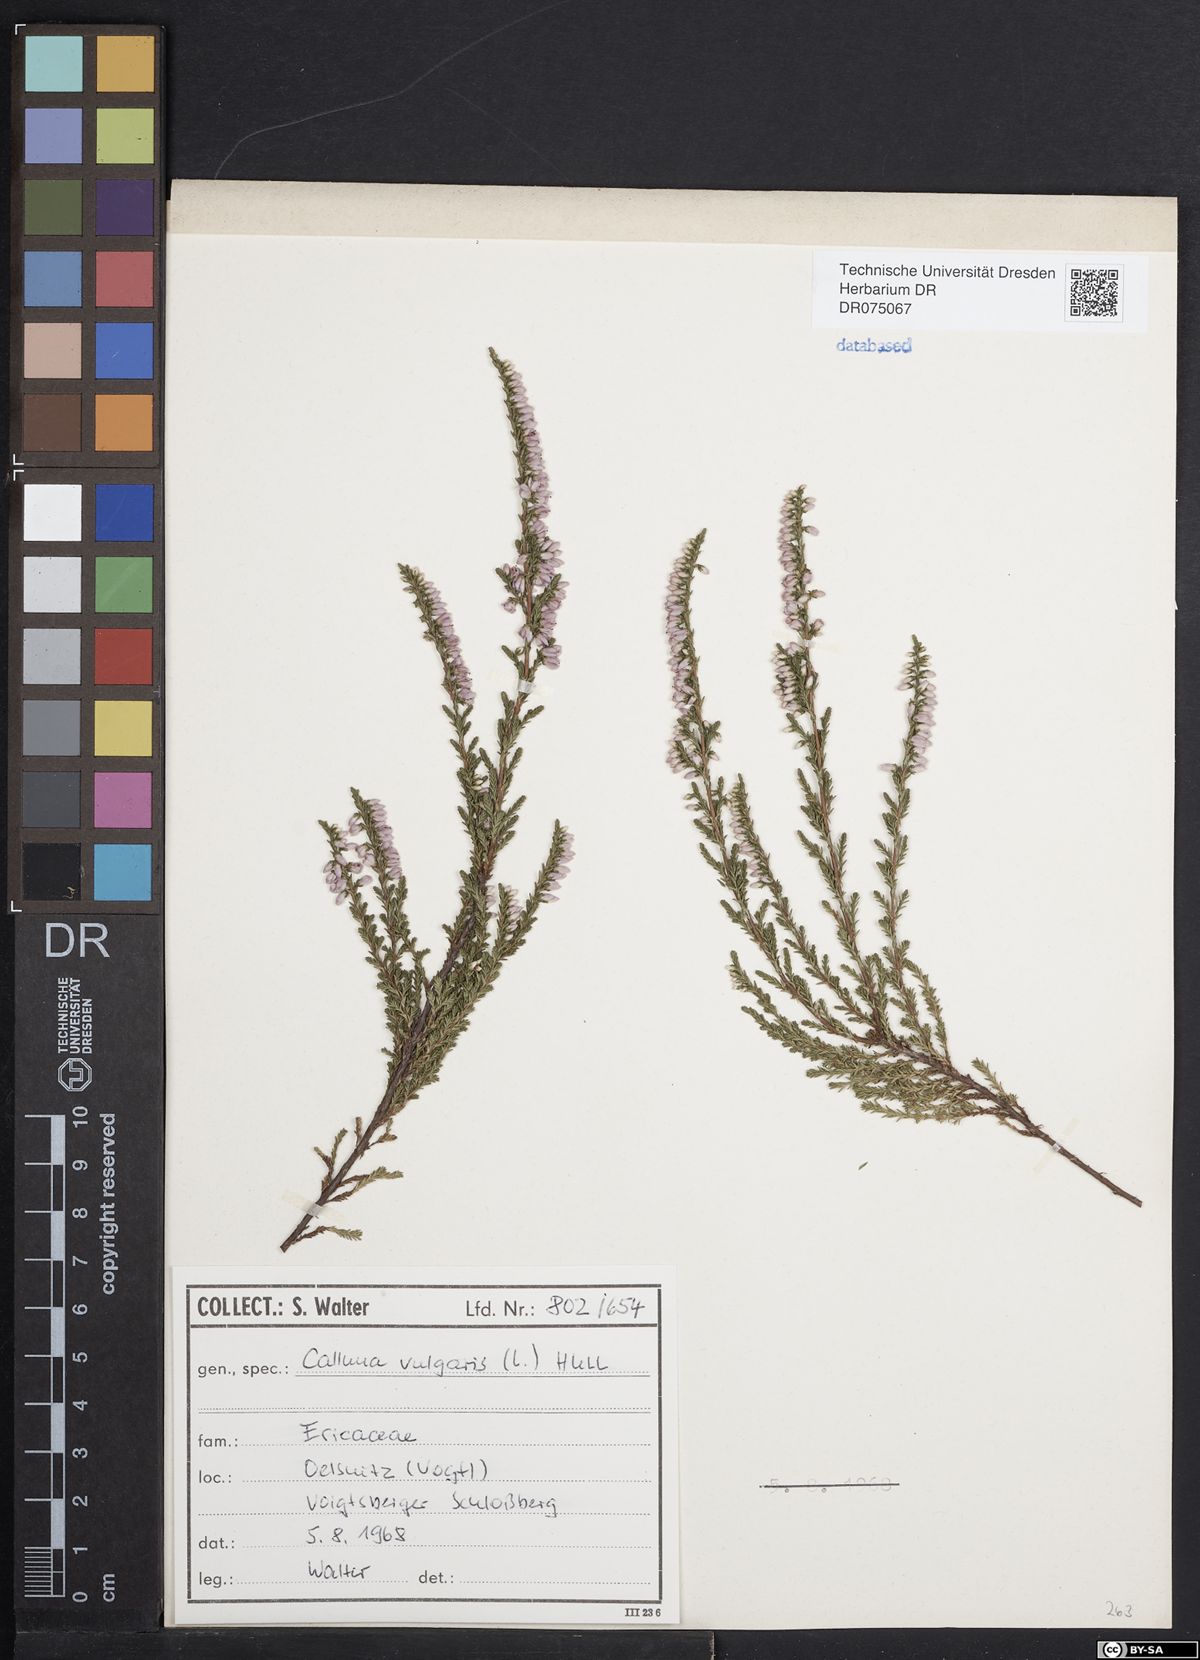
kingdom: Plantae
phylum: Tracheophyta
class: Magnoliopsida
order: Ericales
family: Ericaceae
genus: Calluna
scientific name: Calluna vulgaris
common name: Heather
